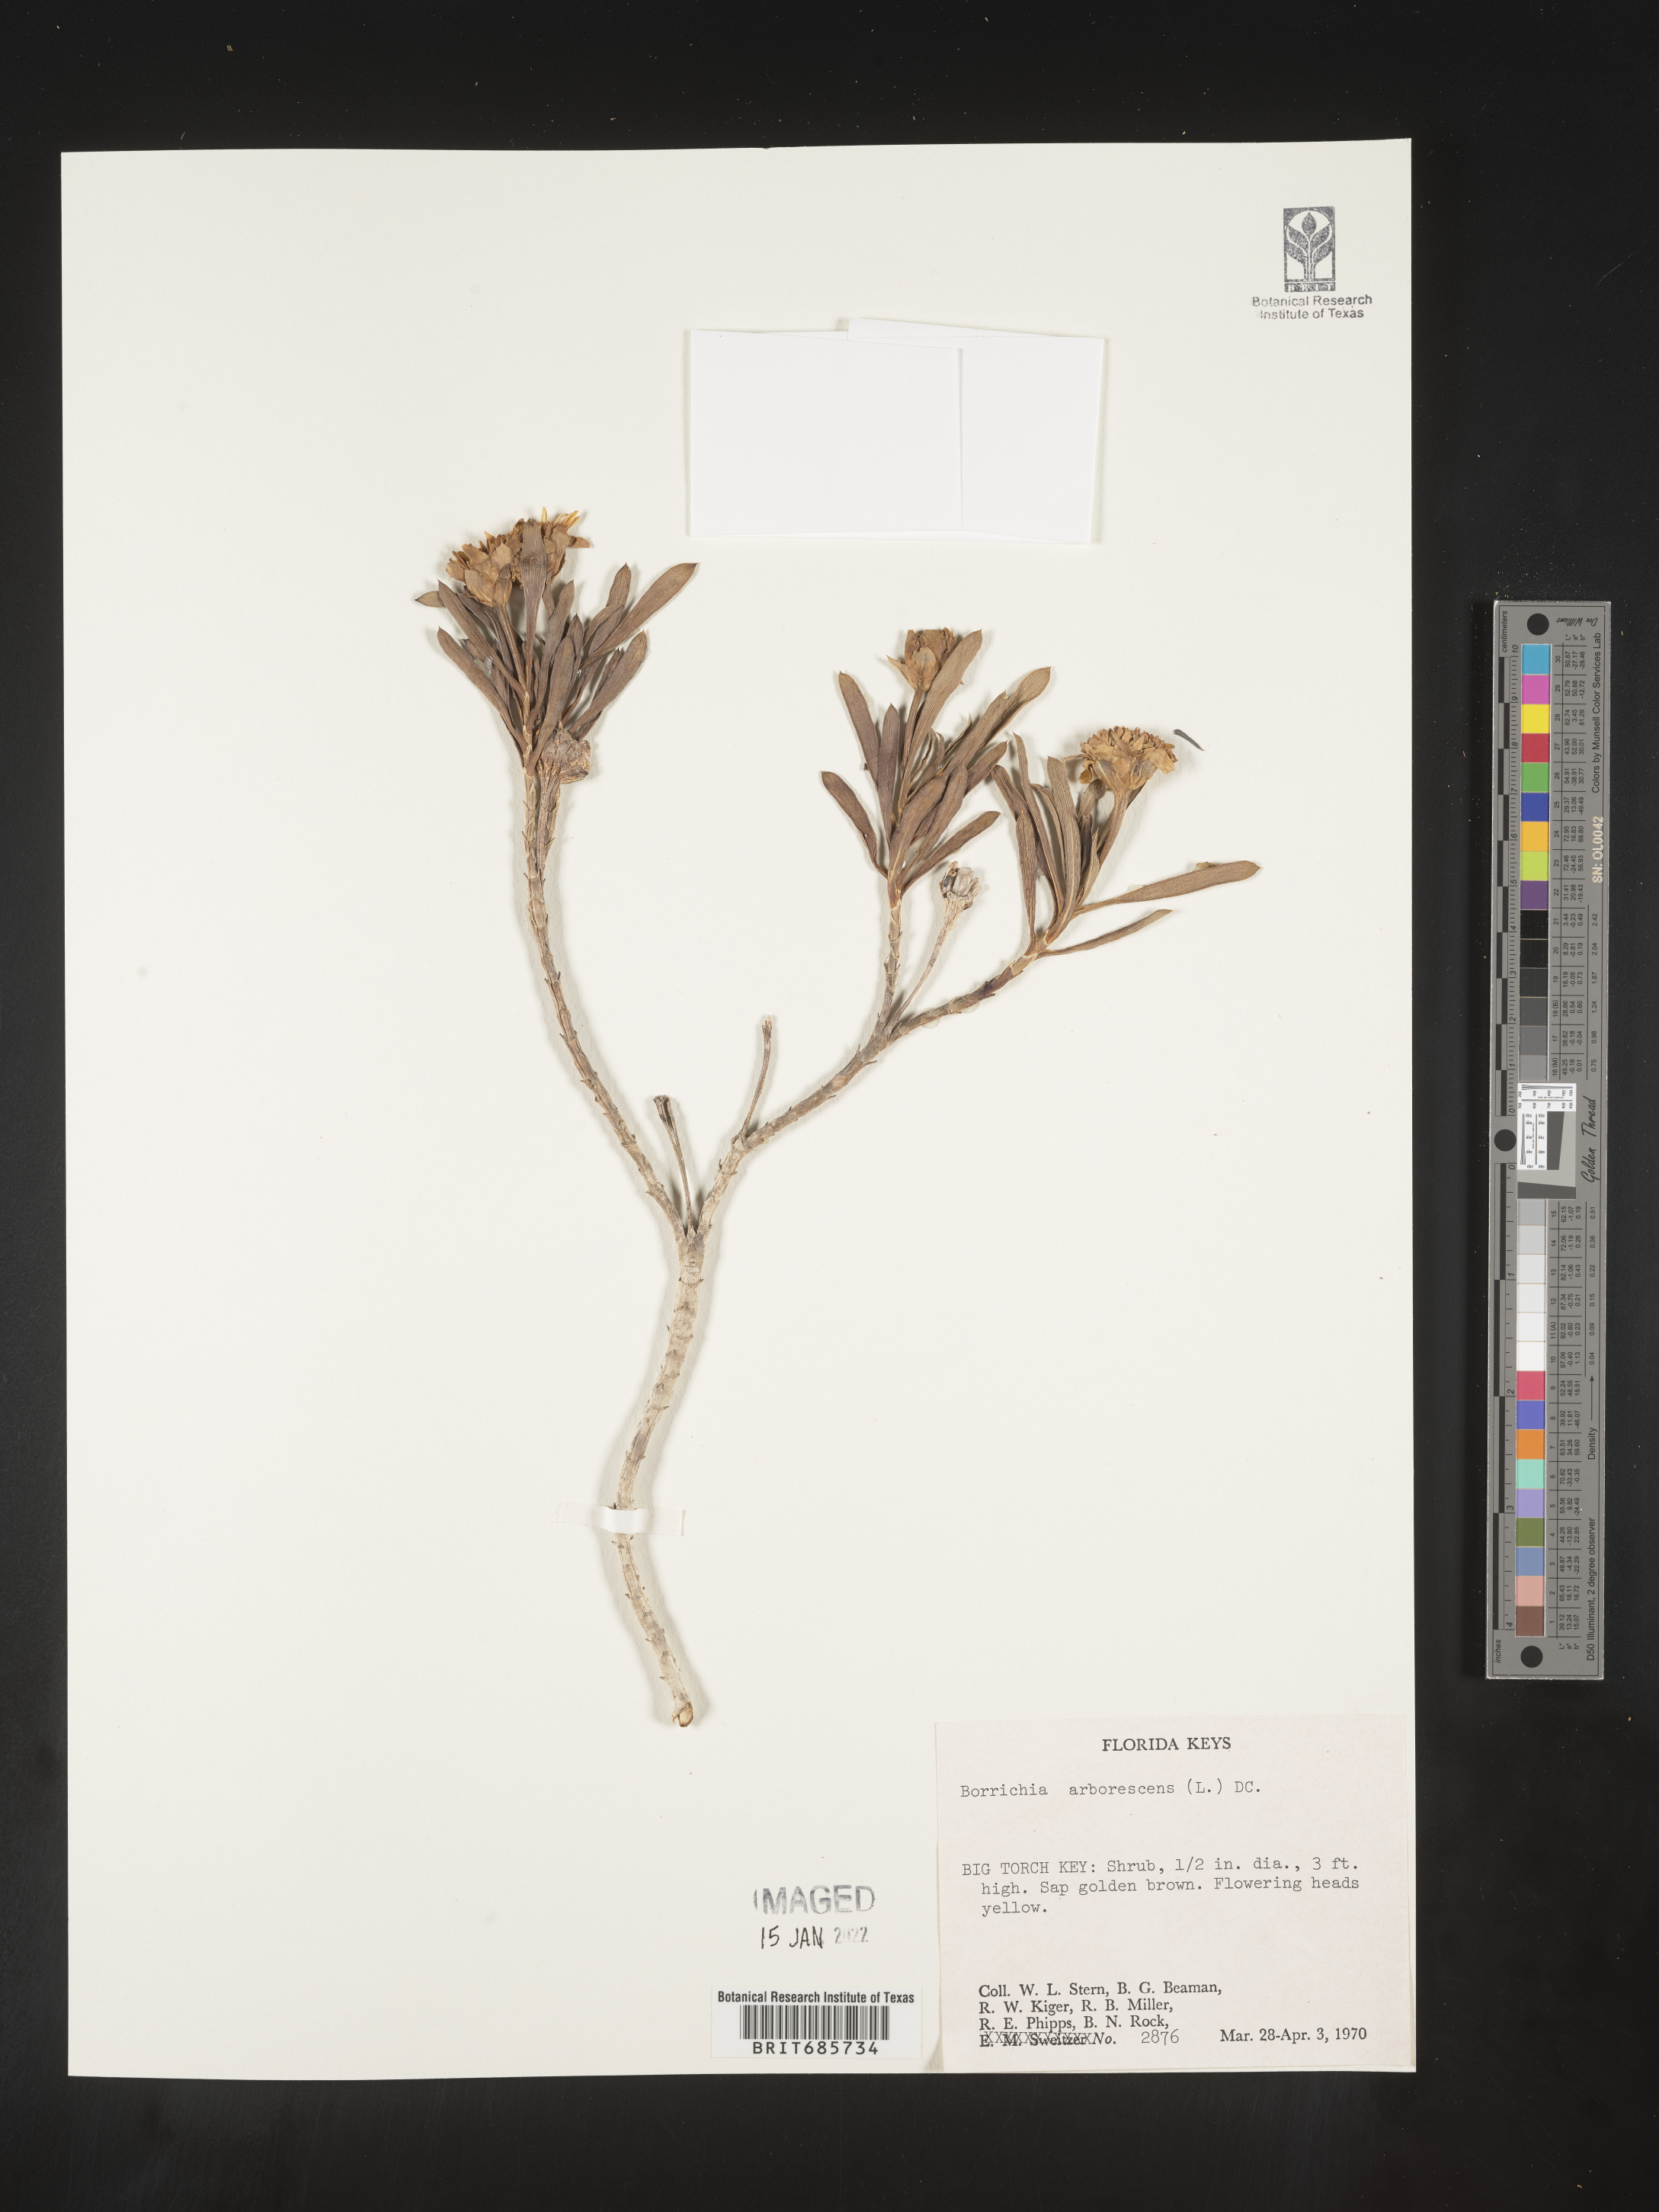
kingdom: Plantae
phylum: Tracheophyta
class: Magnoliopsida
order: Asterales
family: Asteraceae
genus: Borrichia
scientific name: Borrichia frutescens
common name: Sea oxeye
